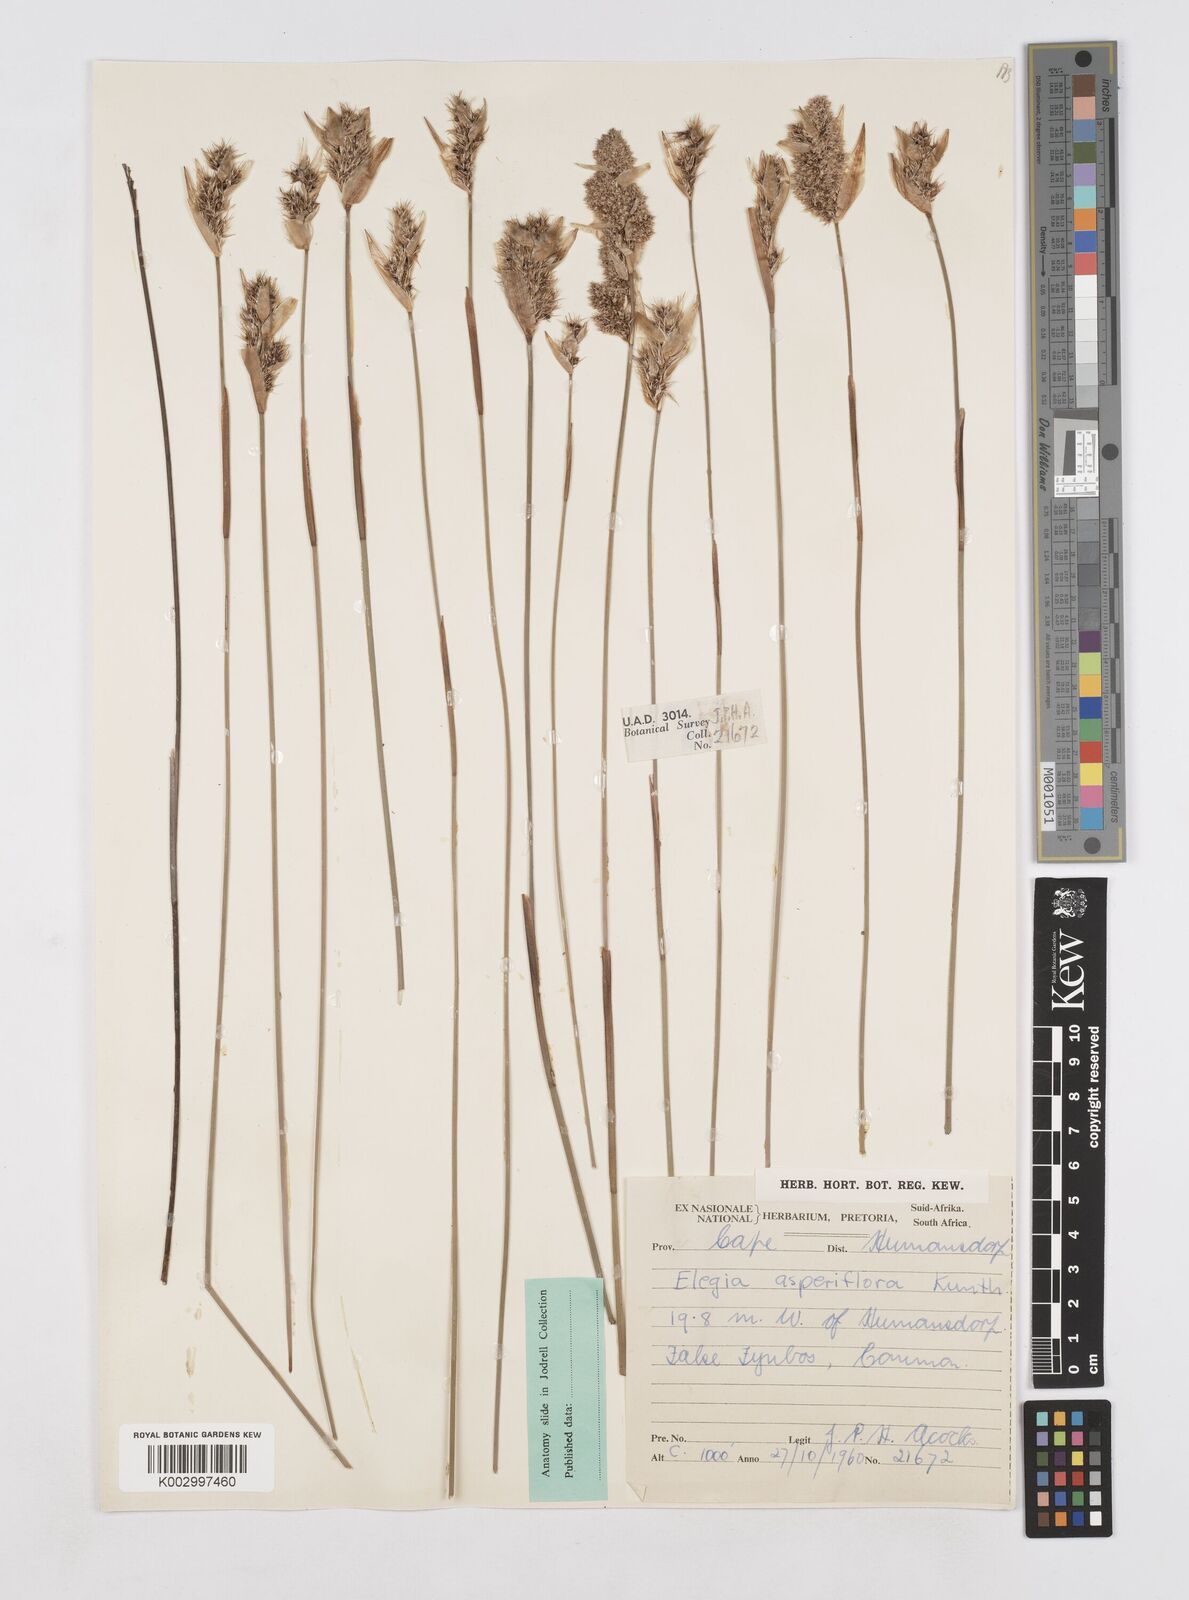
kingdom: Plantae
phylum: Tracheophyta
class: Liliopsida
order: Poales
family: Restionaceae
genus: Elegia
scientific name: Elegia asperiflora
